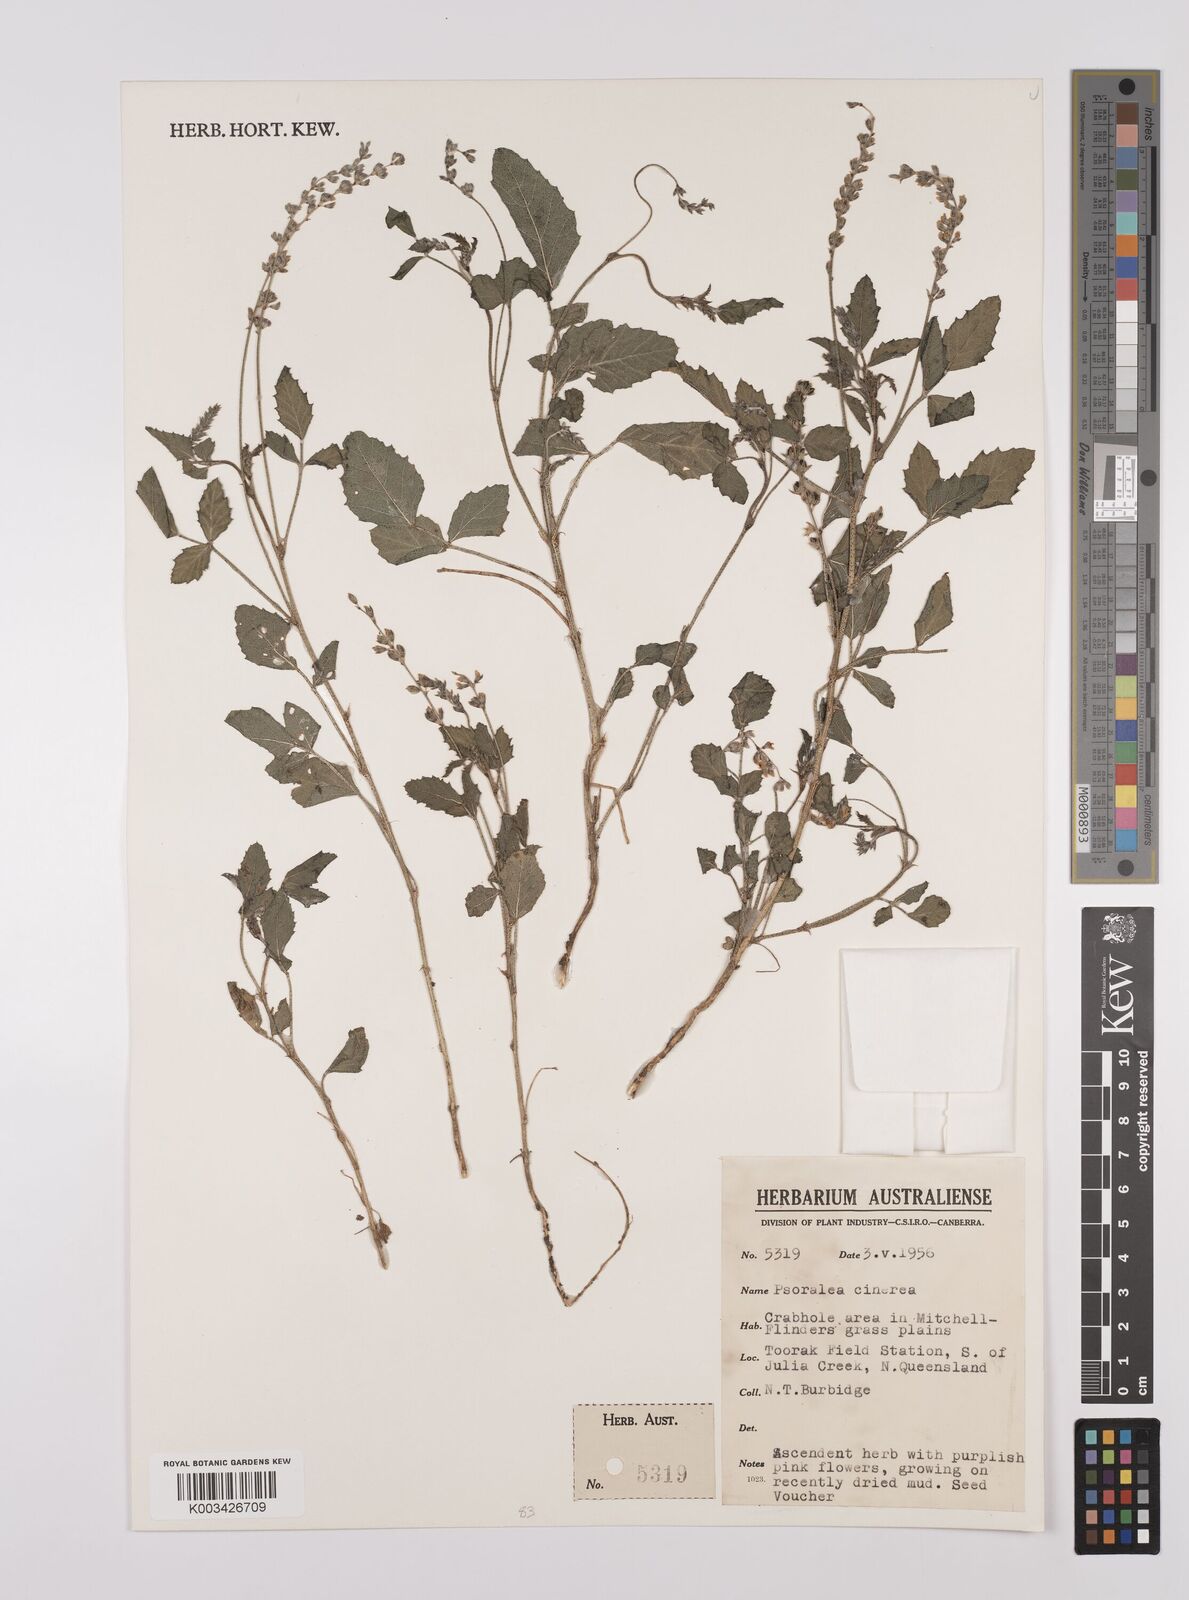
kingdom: Plantae
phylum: Tracheophyta
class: Magnoliopsida
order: Fabales
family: Fabaceae
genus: Cullen
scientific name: Cullen cinereum
